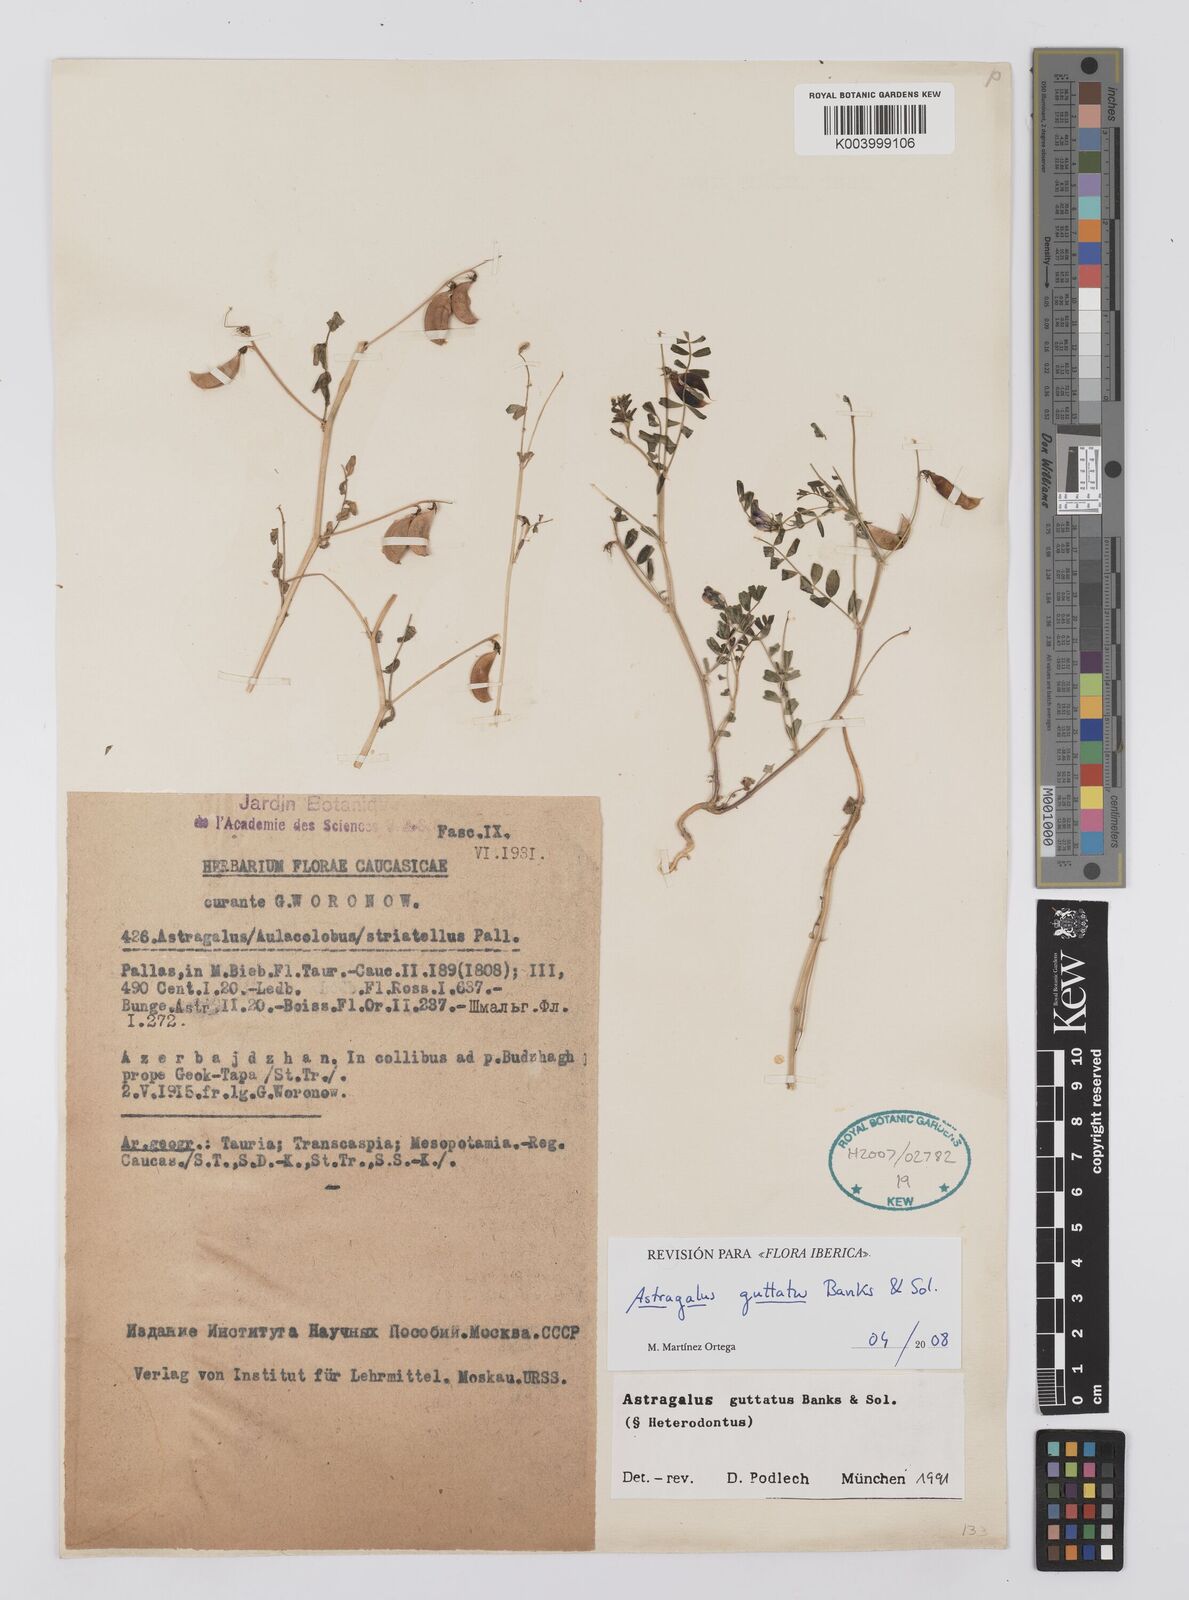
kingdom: Plantae
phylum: Tracheophyta
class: Magnoliopsida
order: Fabales
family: Fabaceae
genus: Astragalus
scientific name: Astragalus heterodontus
